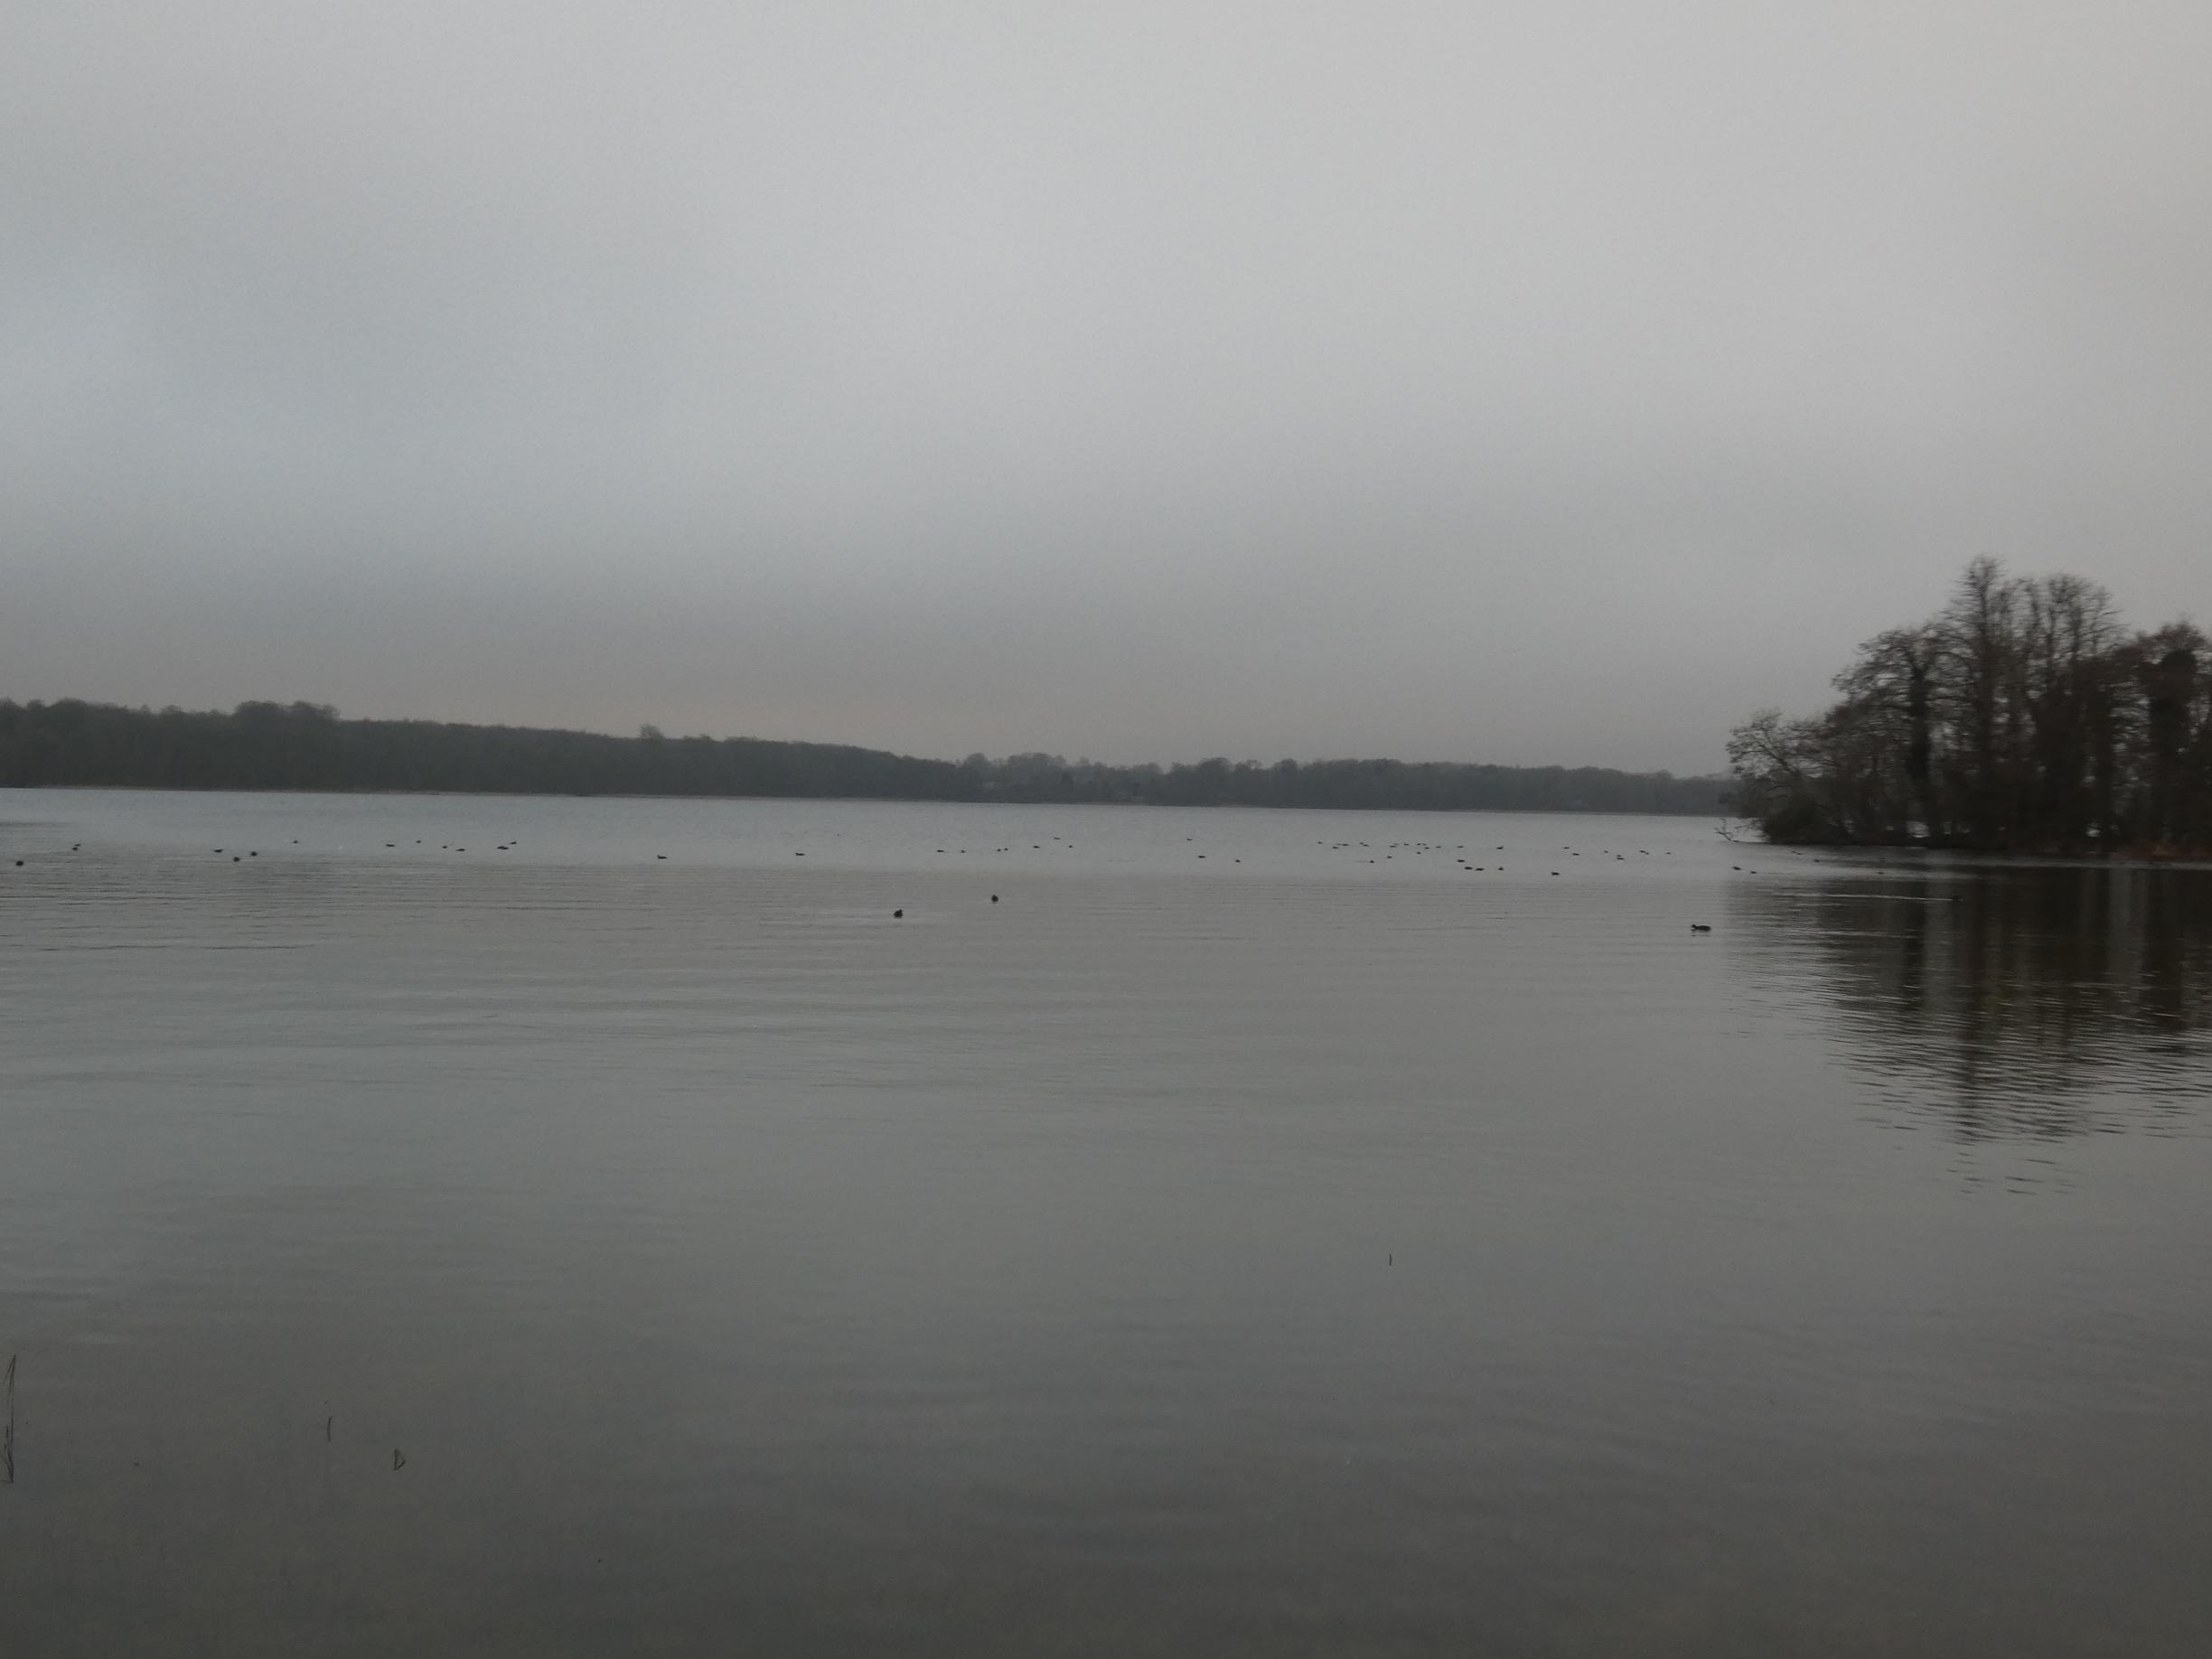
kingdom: Animalia
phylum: Chordata
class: Aves
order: Gruiformes
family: Rallidae
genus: Fulica
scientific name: Fulica atra
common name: Blishøne
